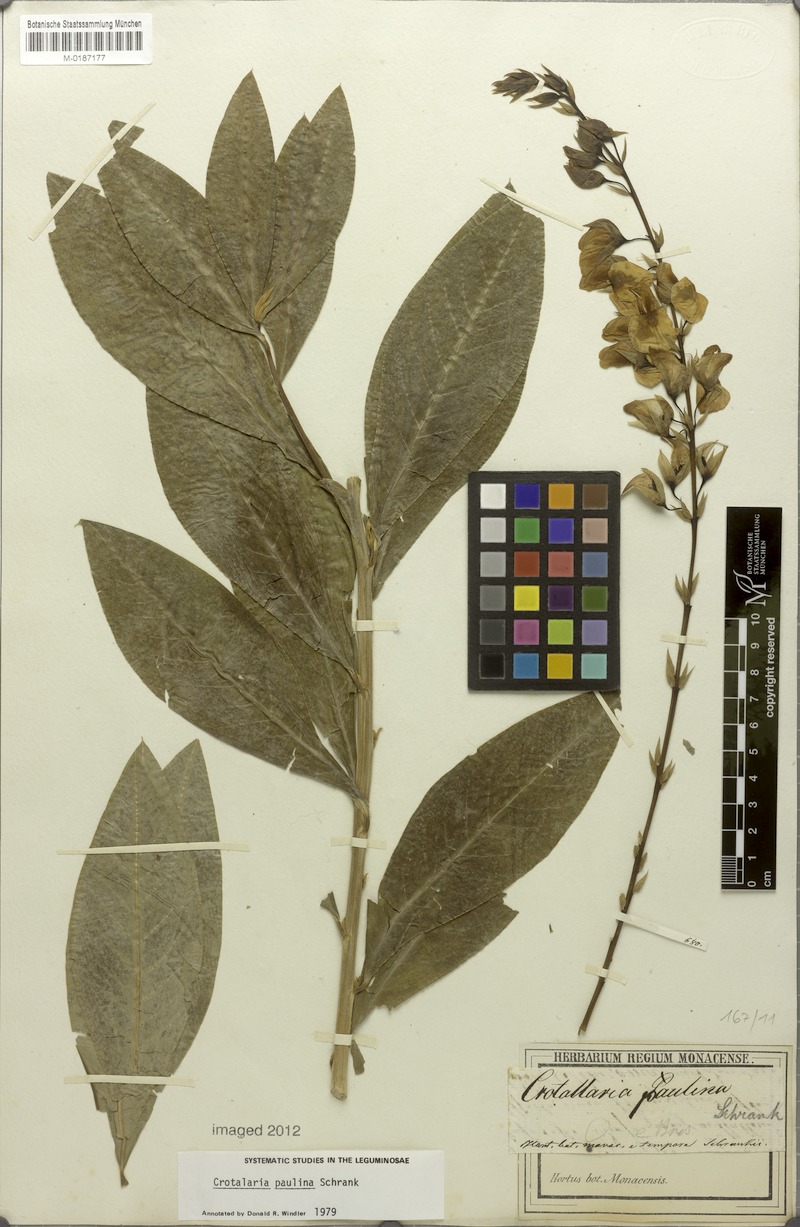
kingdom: Plantae
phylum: Tracheophyta
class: Magnoliopsida
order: Fabales
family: Fabaceae
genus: Crotalaria
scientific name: Crotalaria paulina
